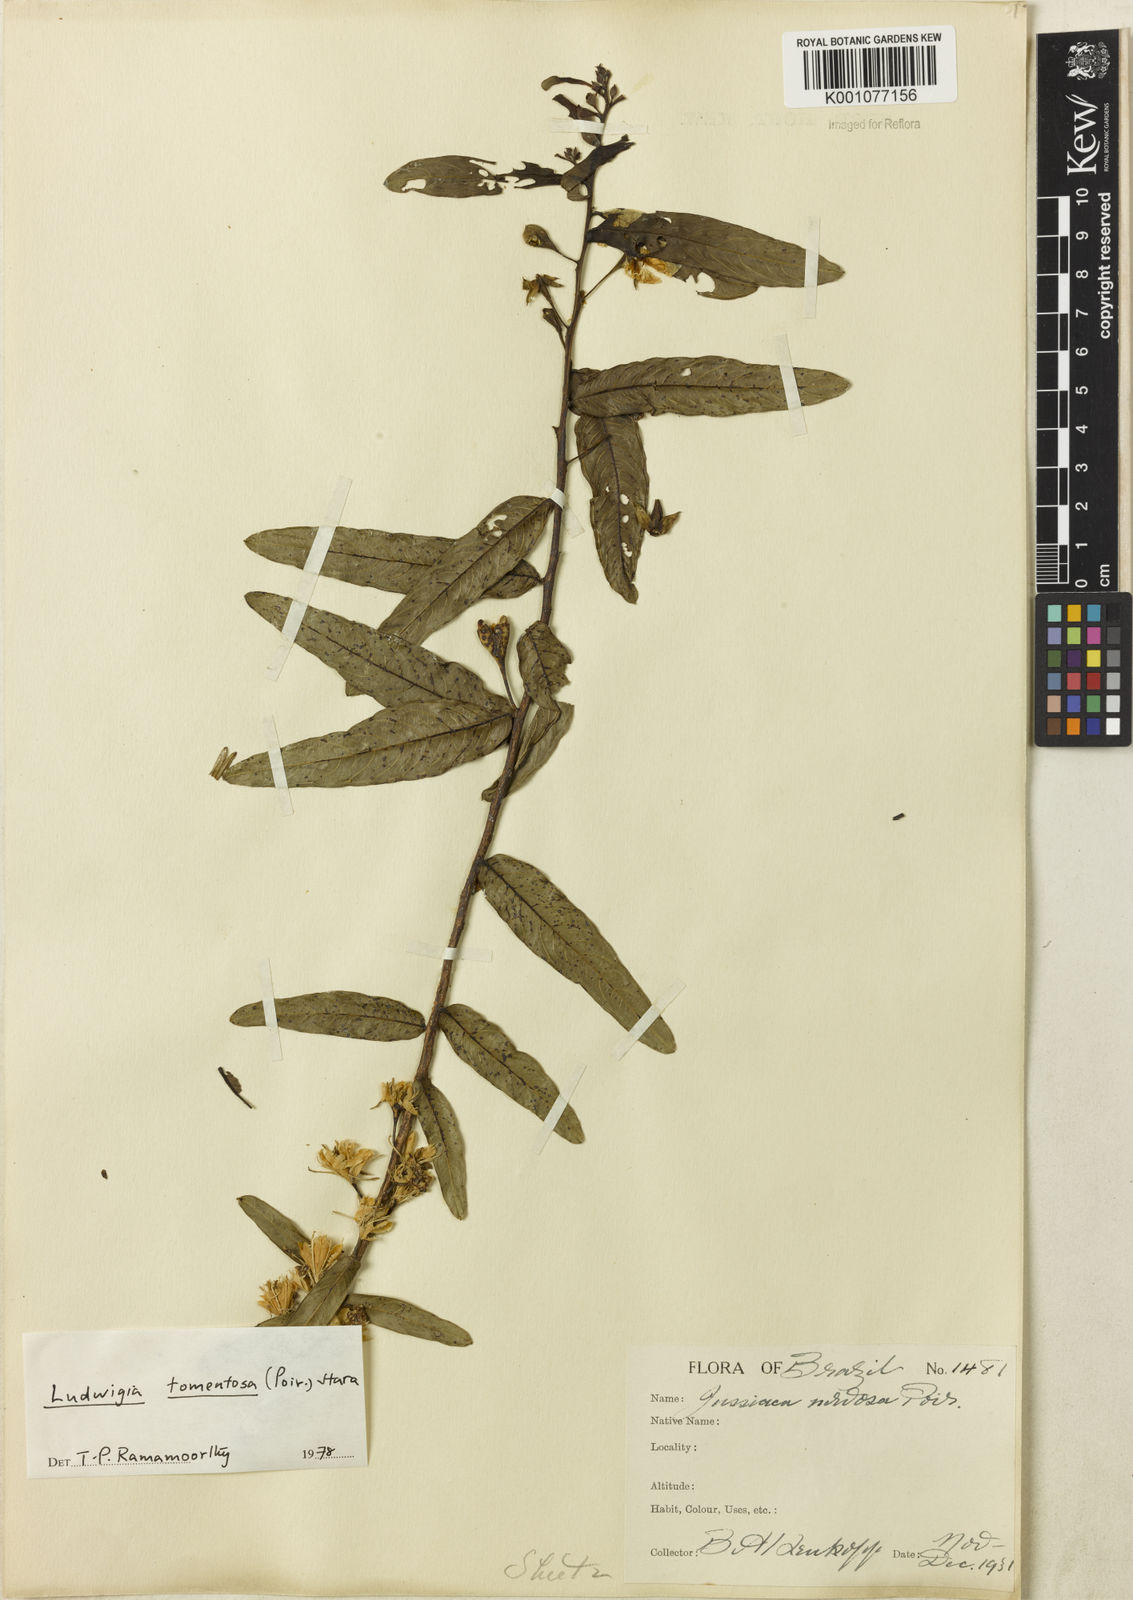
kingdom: Plantae
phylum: Tracheophyta
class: Magnoliopsida
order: Myrtales
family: Onagraceae
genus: Ludwigia
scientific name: Ludwigia nervosa
